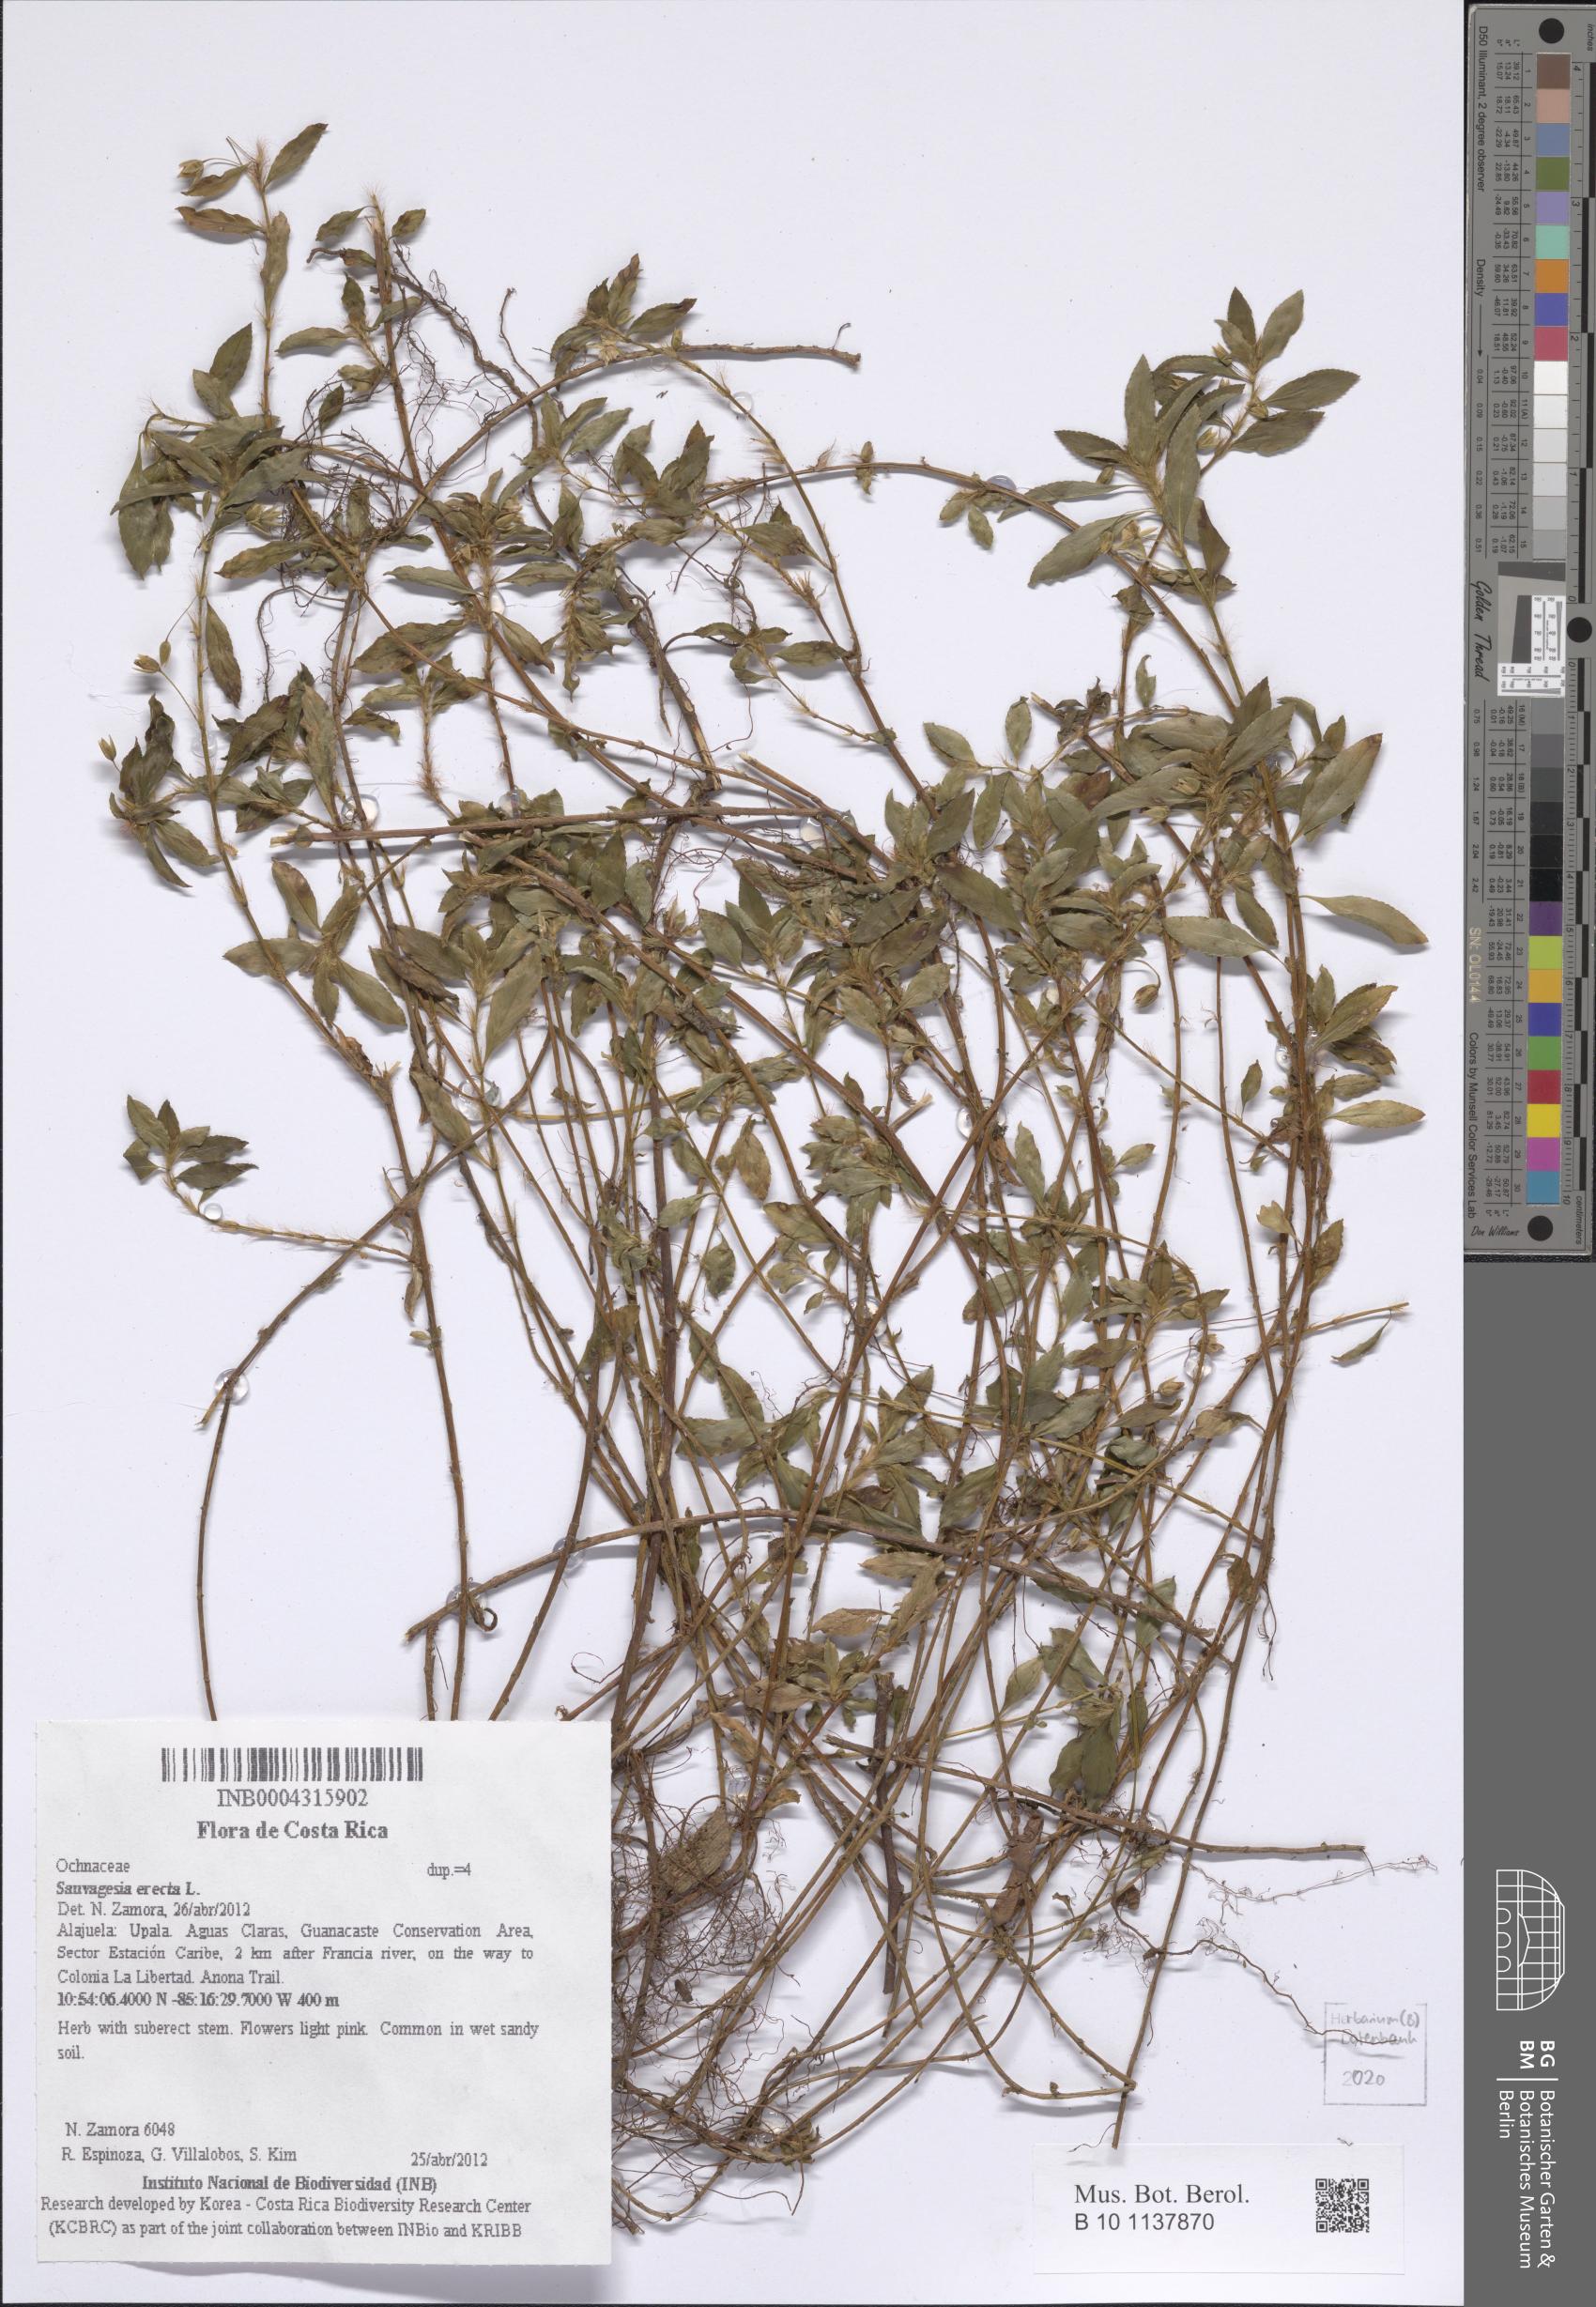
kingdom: Plantae
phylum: Tracheophyta
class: Magnoliopsida
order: Malpighiales
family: Ochnaceae
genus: Sauvagesia
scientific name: Sauvagesia erecta
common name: Creole tea
